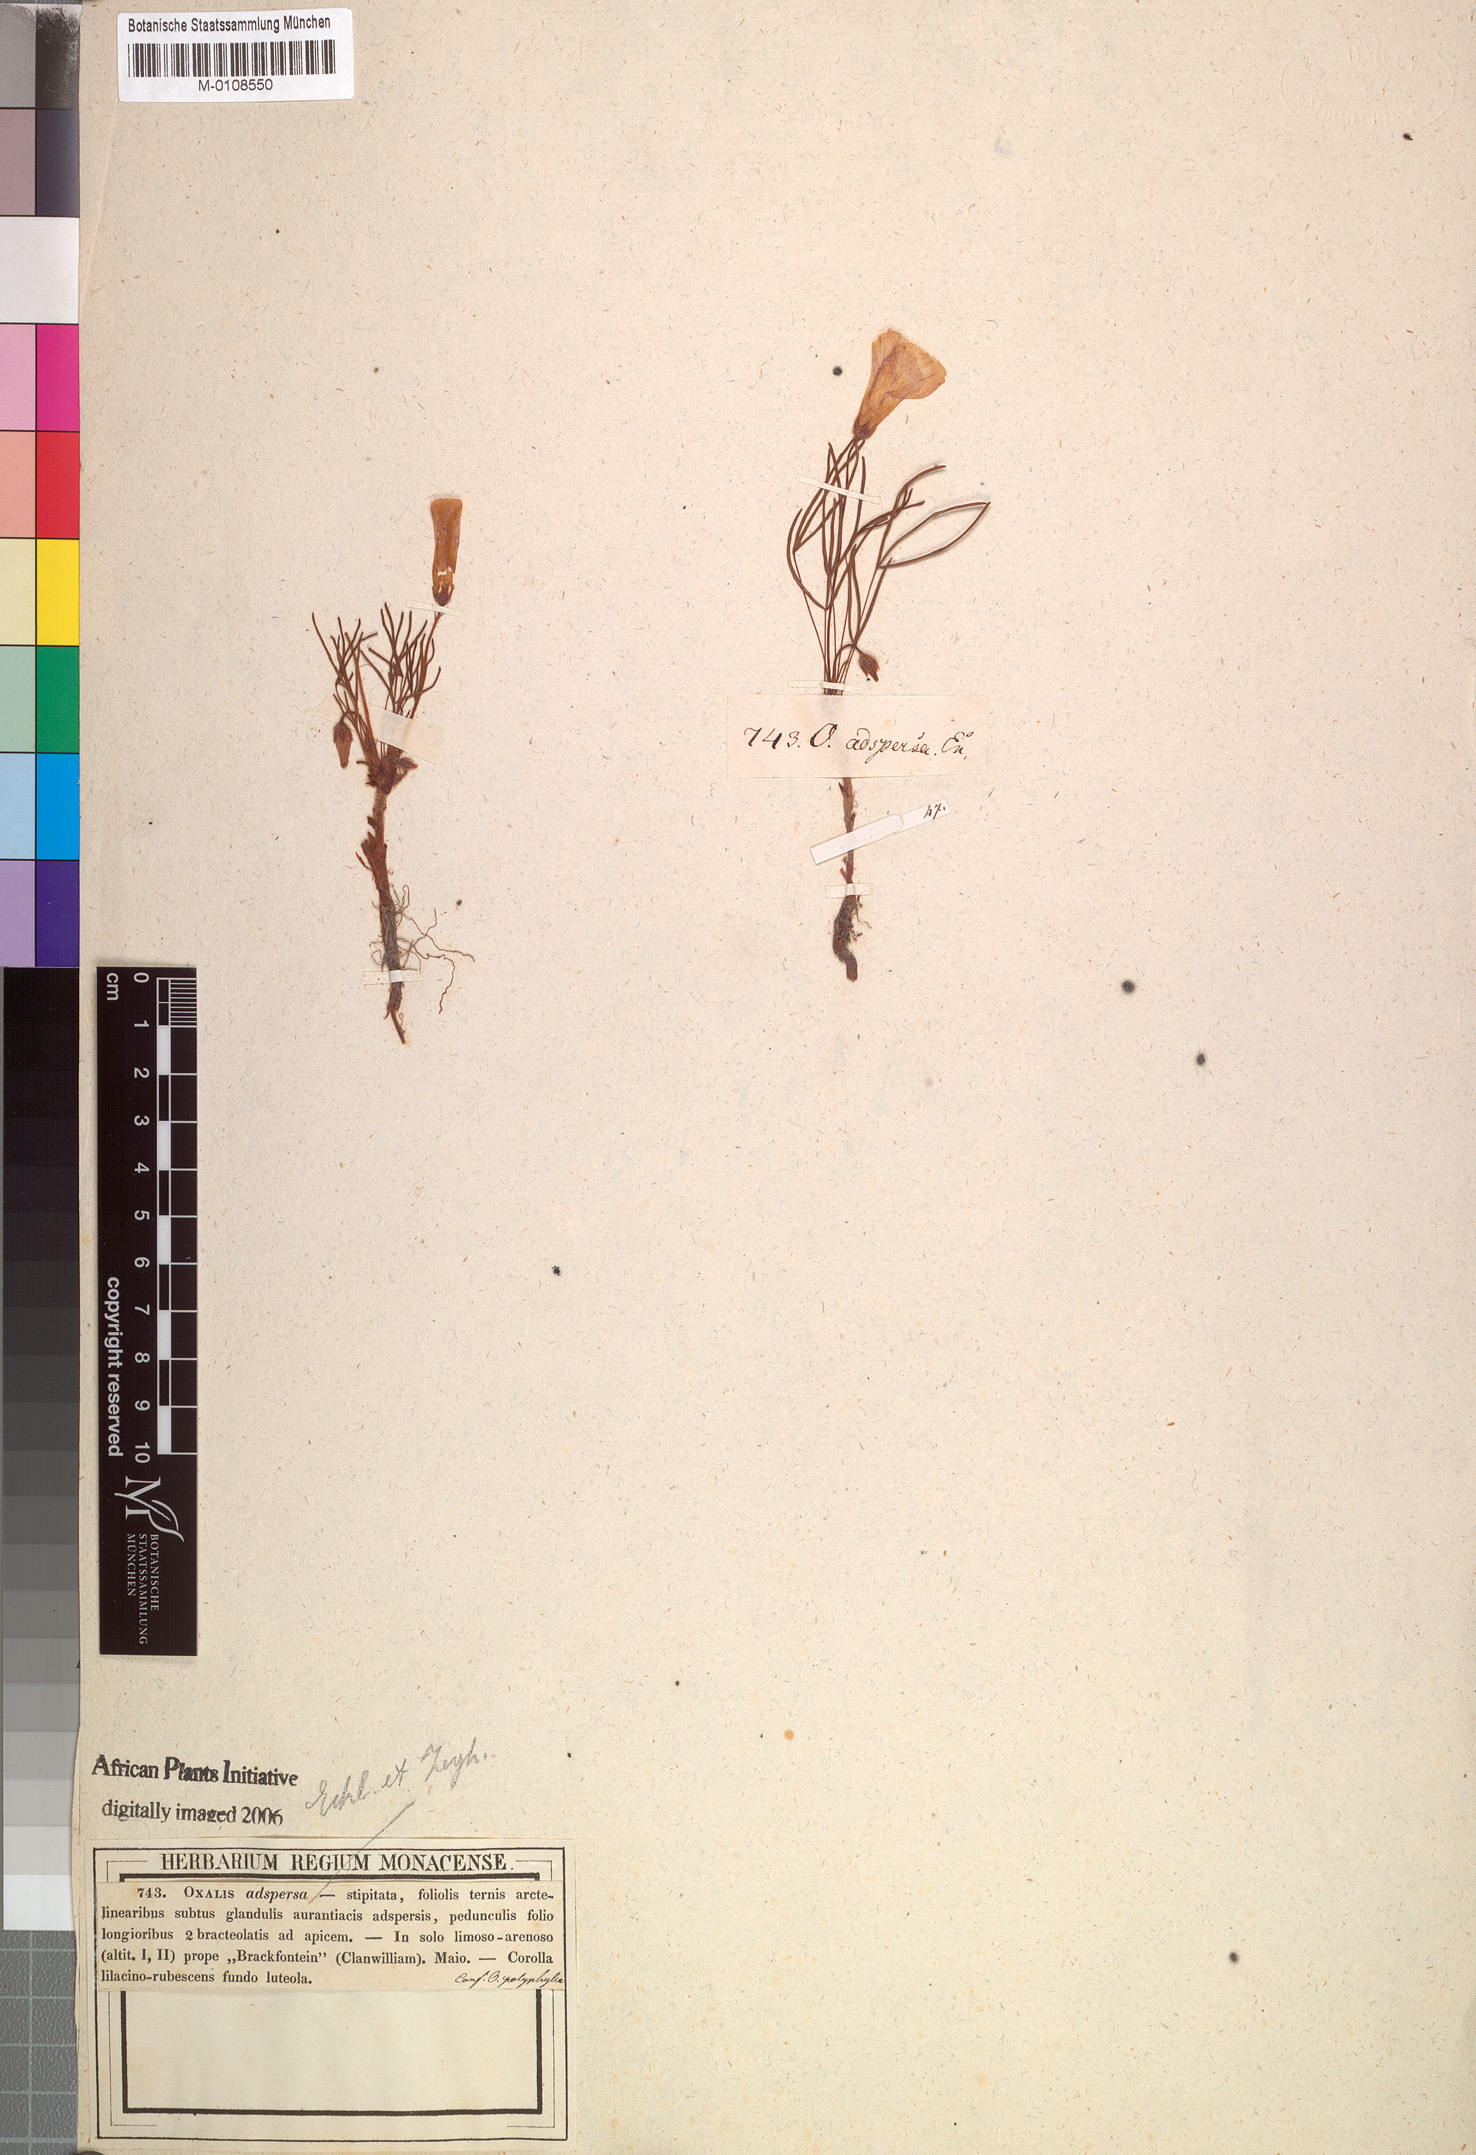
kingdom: Plantae
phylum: Tracheophyta
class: Magnoliopsida
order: Oxalidales
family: Oxalidaceae
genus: Oxalis
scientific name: Oxalis adspersa
